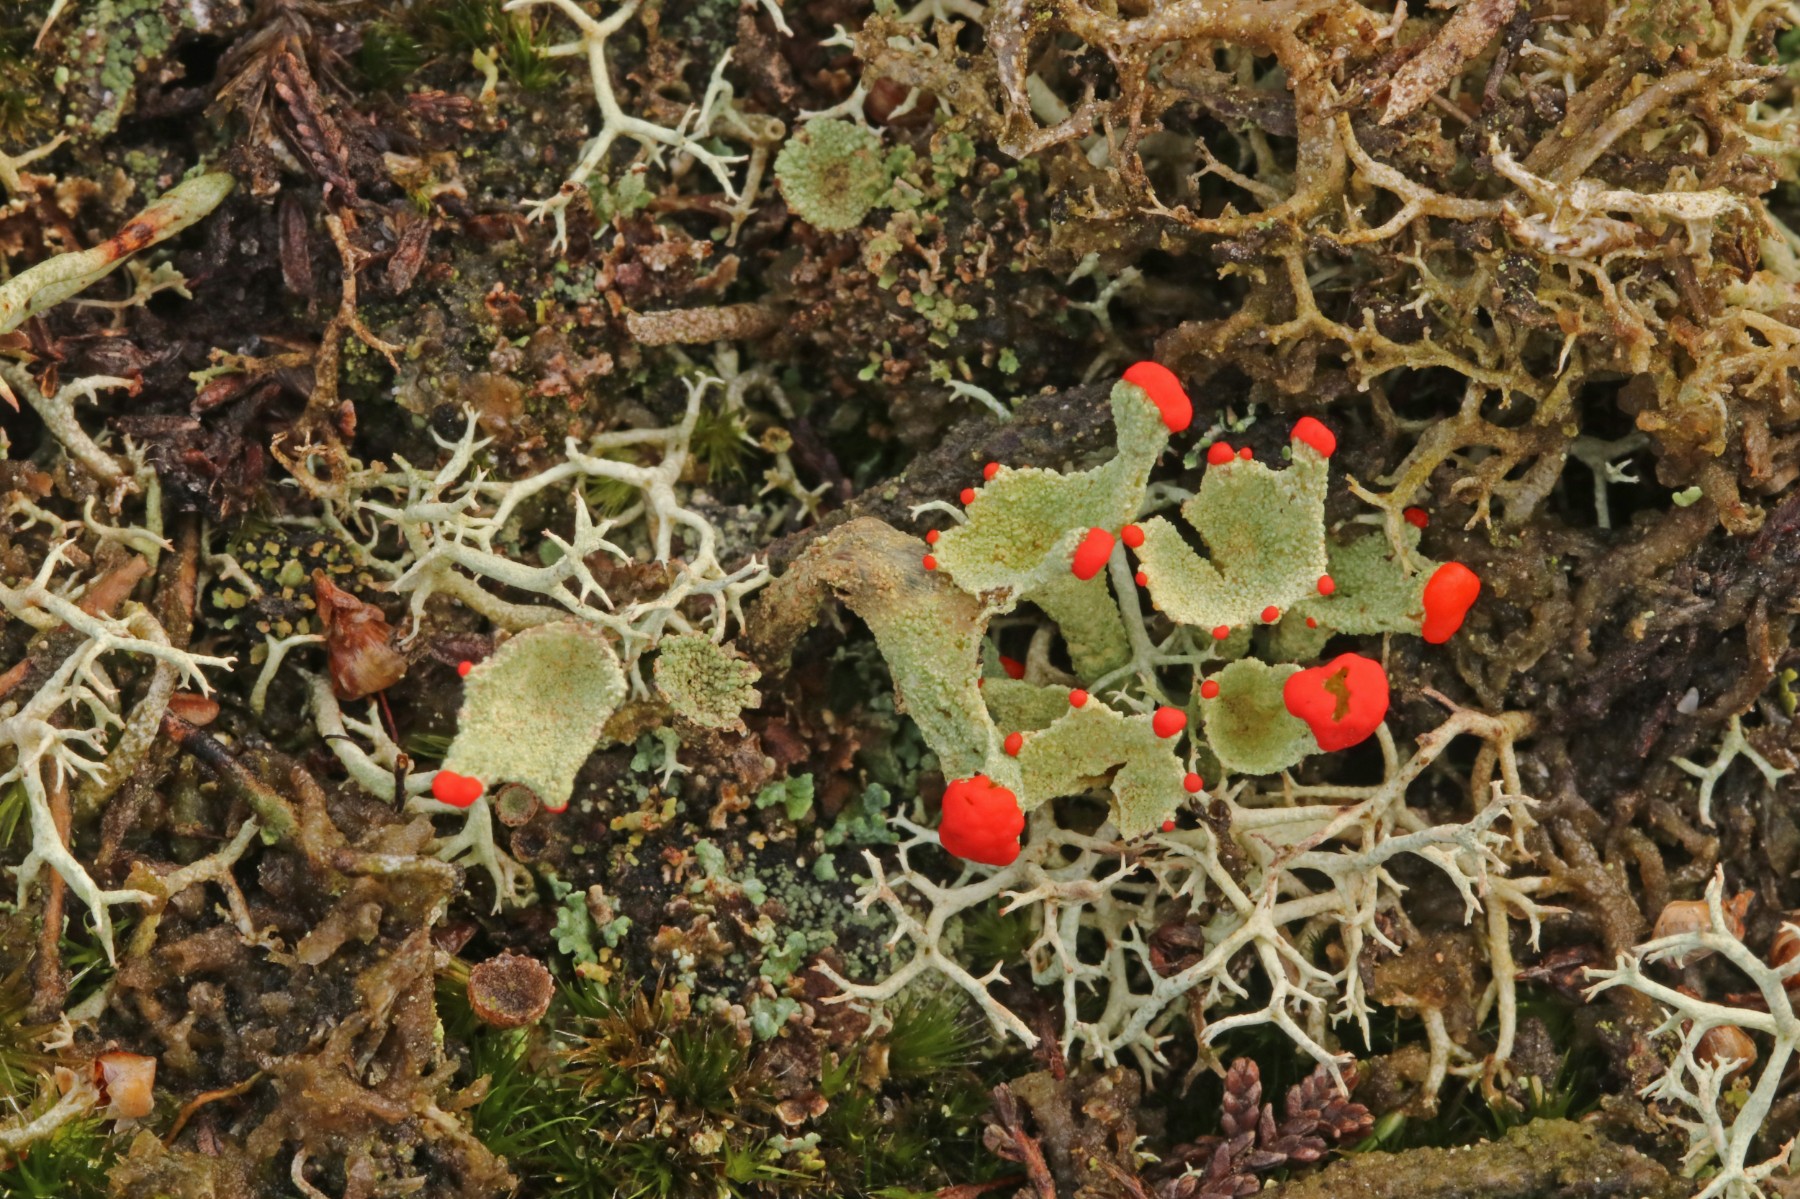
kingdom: Fungi
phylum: Ascomycota
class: Lecanoromycetes
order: Lecanorales
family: Cladoniaceae
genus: Cladonia
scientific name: Cladonia diversa
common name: rød bægerlav
